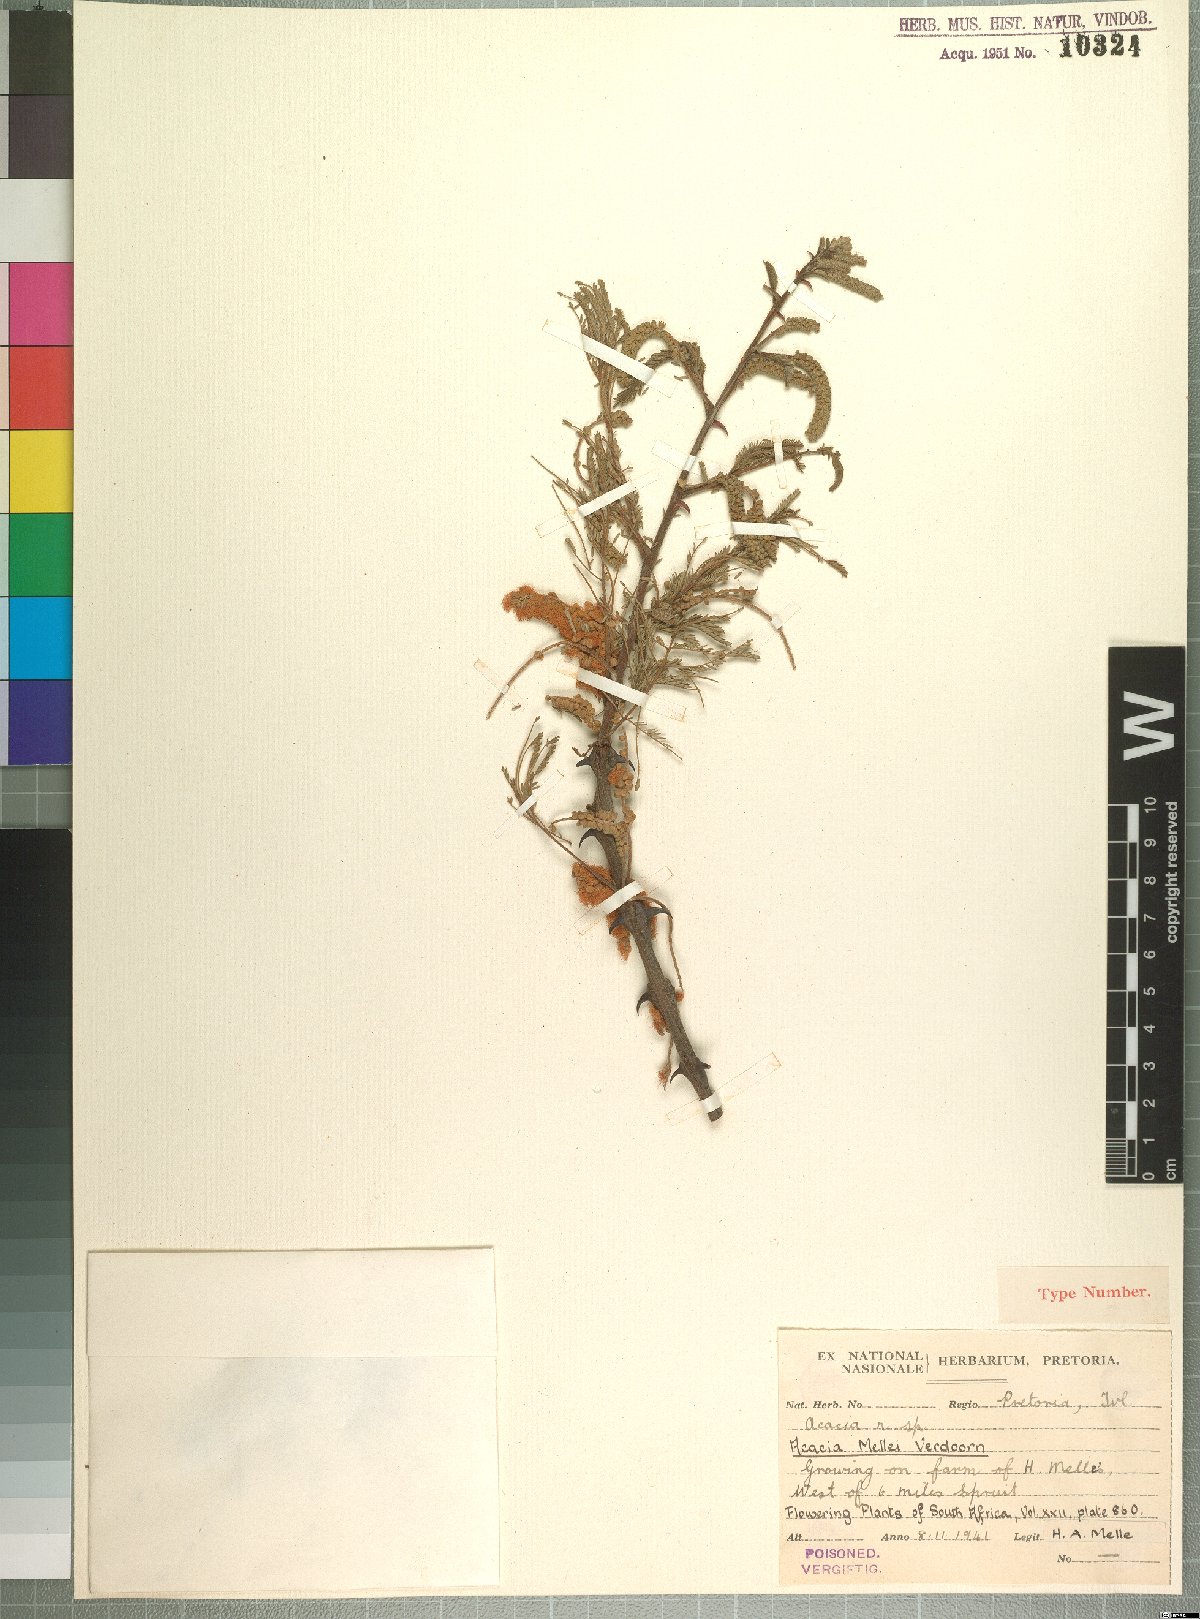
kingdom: Plantae
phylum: Tracheophyta
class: Magnoliopsida
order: Fabales
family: Fabaceae
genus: Senegalia
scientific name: Senegalia hereroensis
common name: Arid hook-thorn
